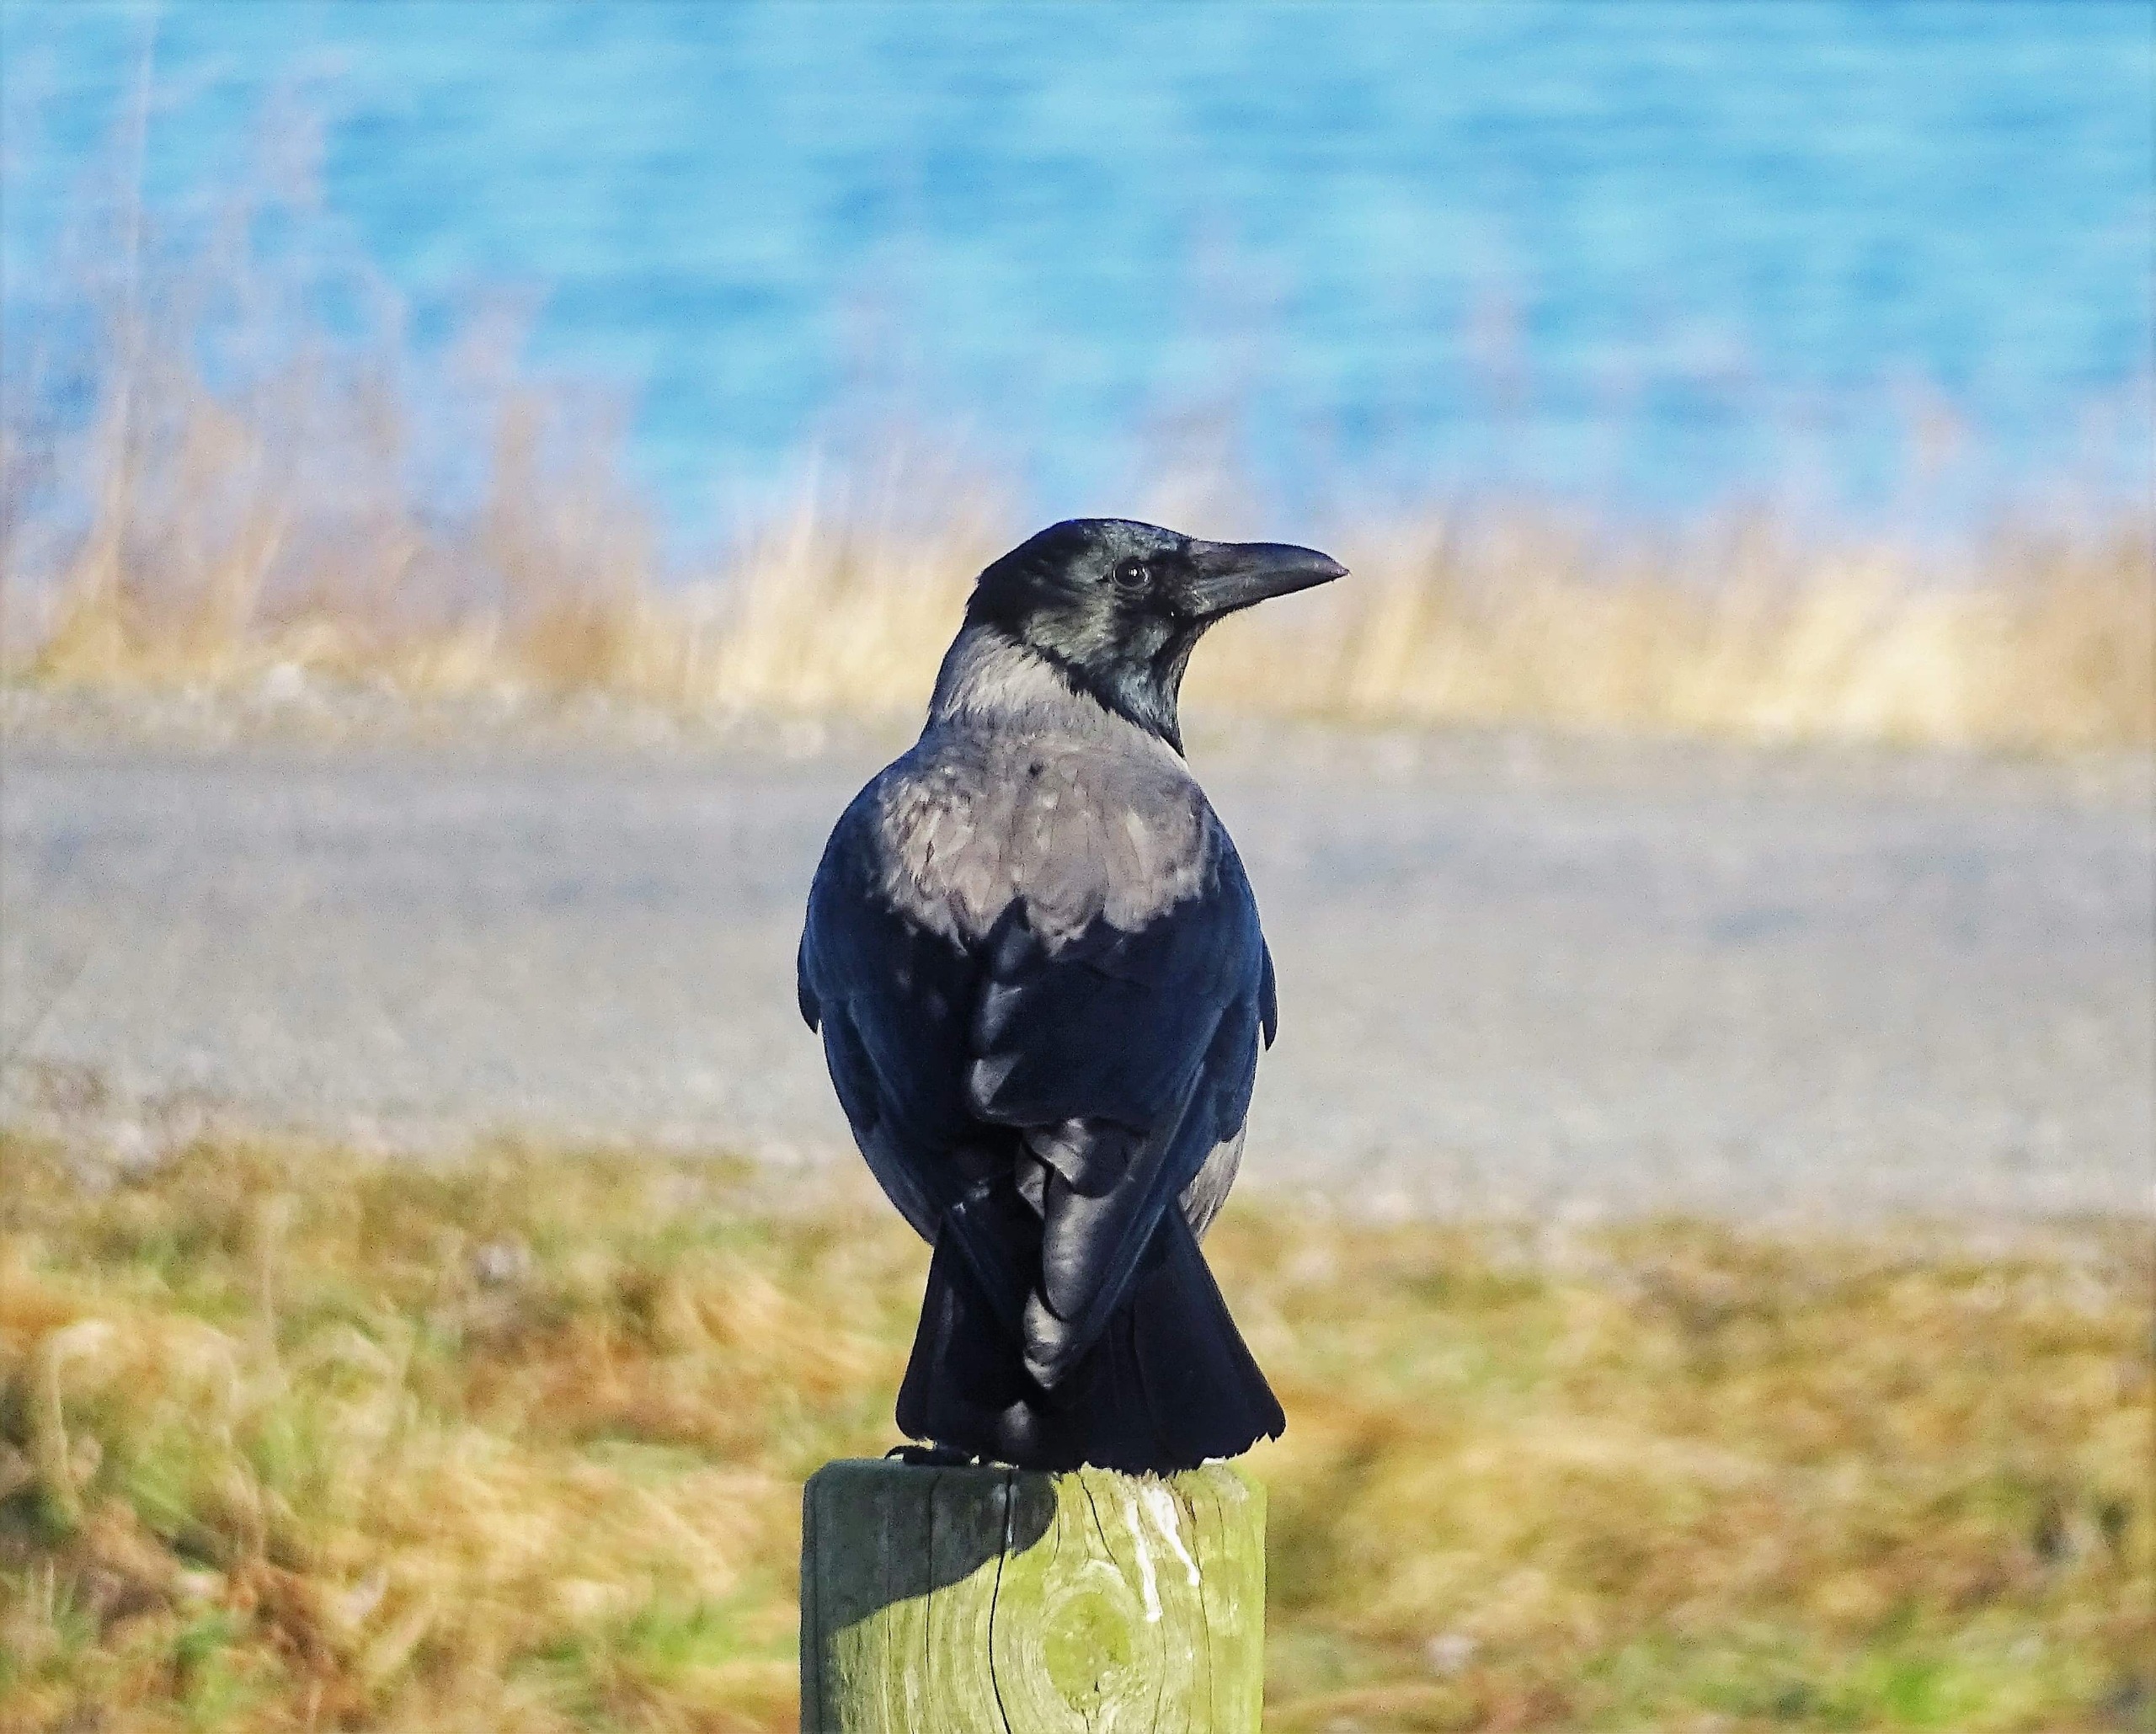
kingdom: Animalia
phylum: Chordata
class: Aves
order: Passeriformes
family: Corvidae
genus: Corvus
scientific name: Corvus cornix
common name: Gråkrage
